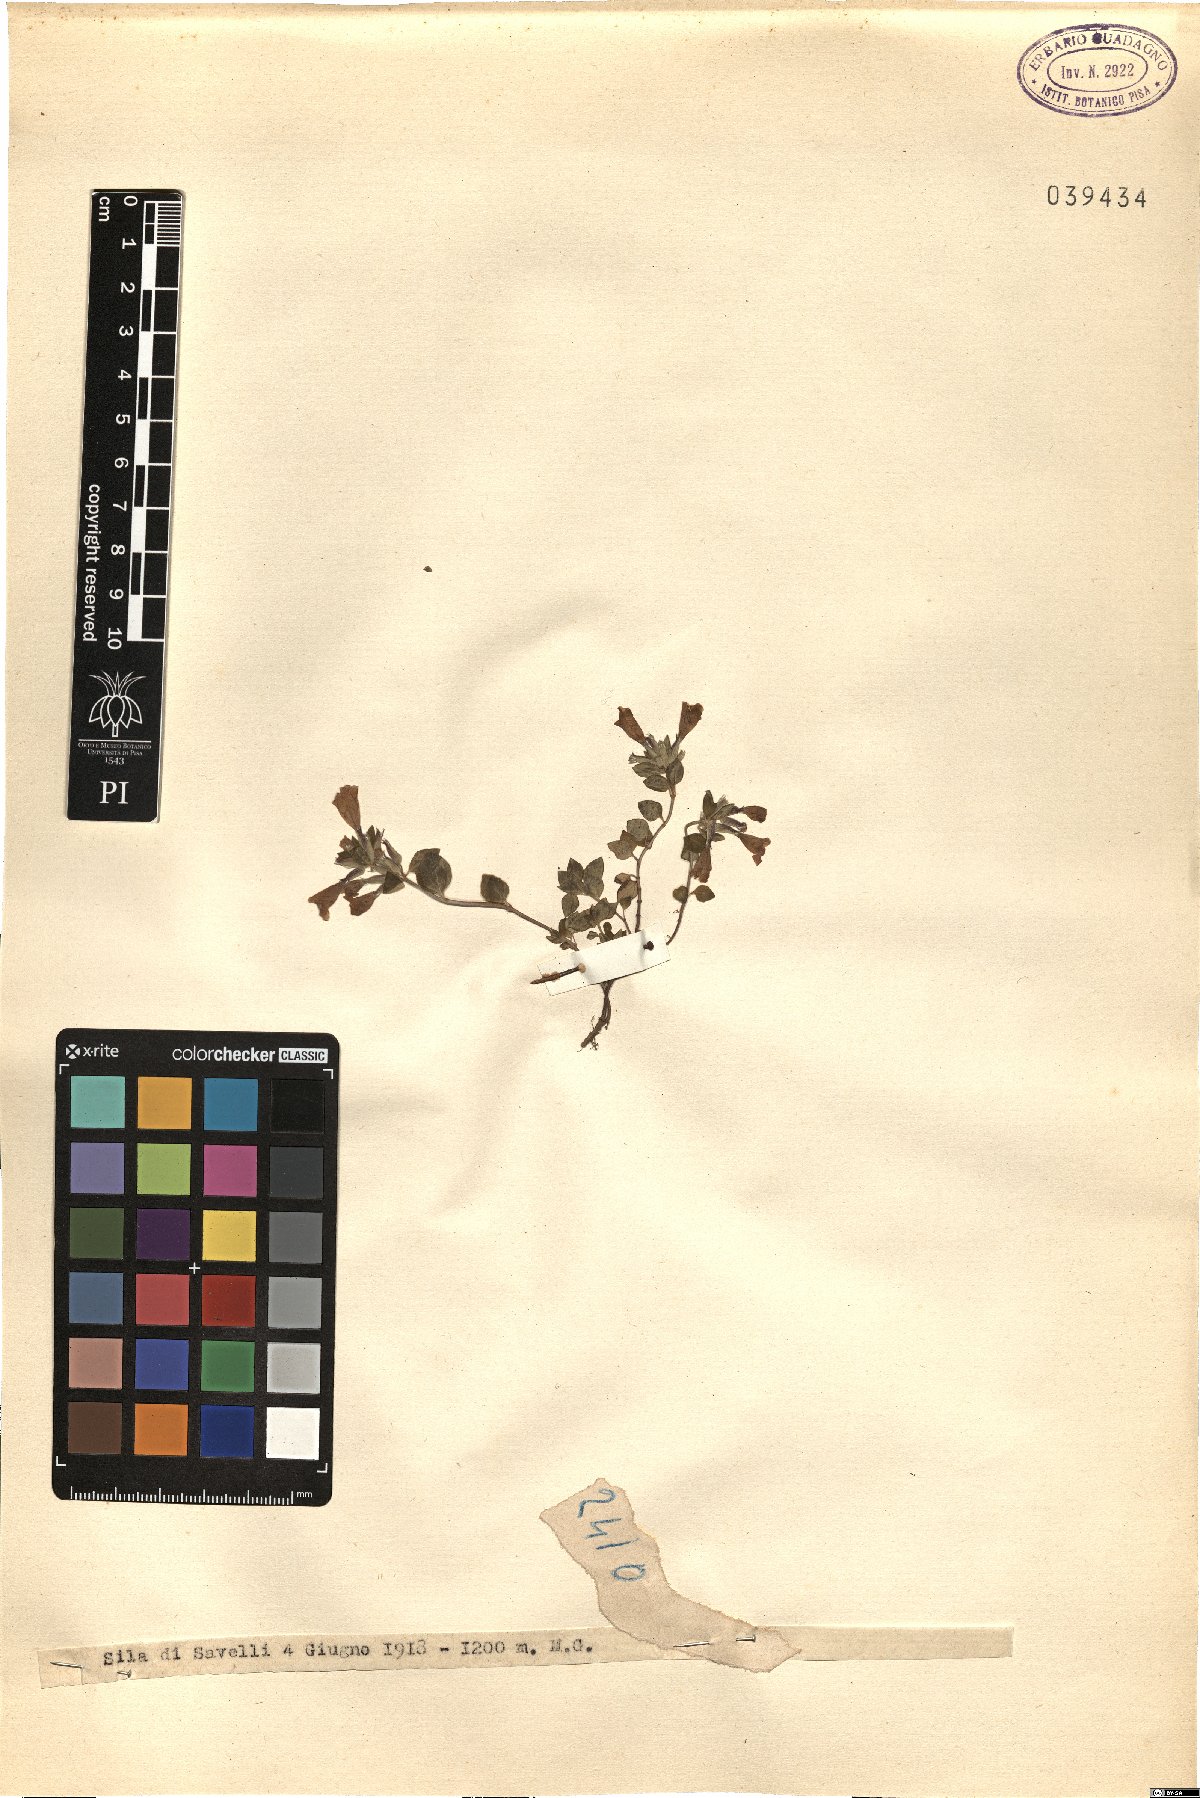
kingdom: Plantae
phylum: Tracheophyta
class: Magnoliopsida
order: Lamiales
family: Lamiaceae
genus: Calamintha
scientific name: Calamintha
